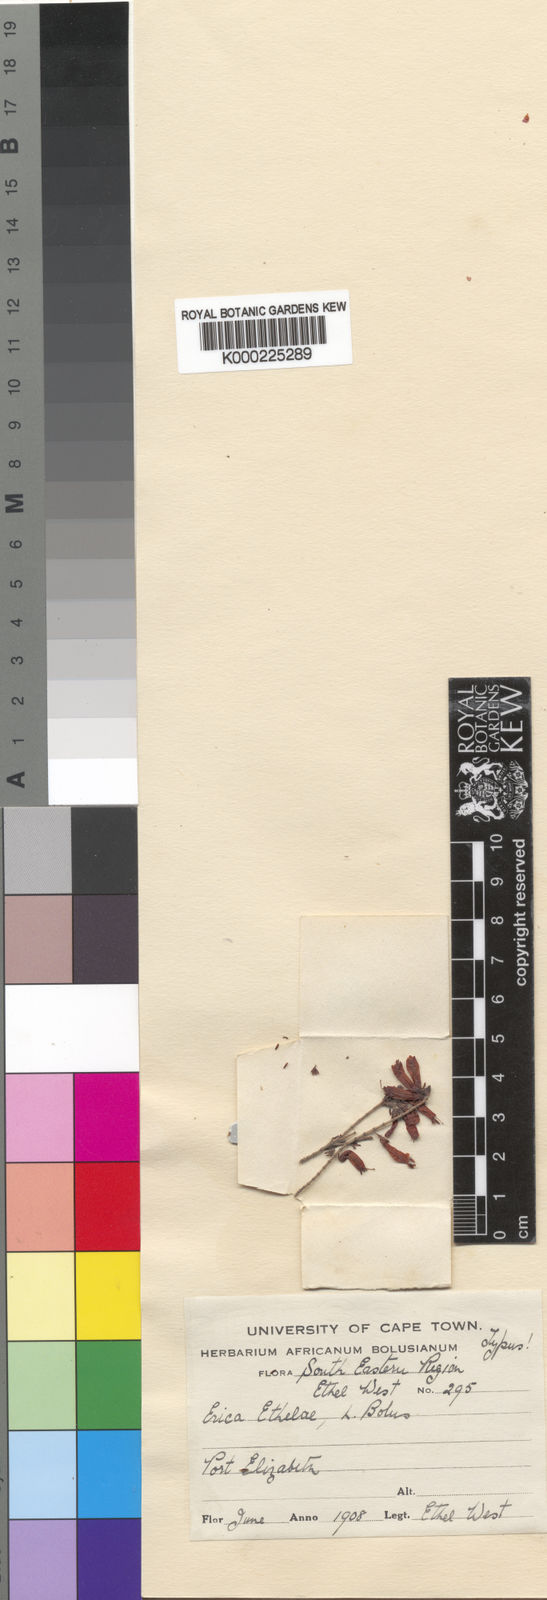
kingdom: Plantae
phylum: Tracheophyta
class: Magnoliopsida
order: Ericales
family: Ericaceae
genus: Erica
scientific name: Erica ethelae
